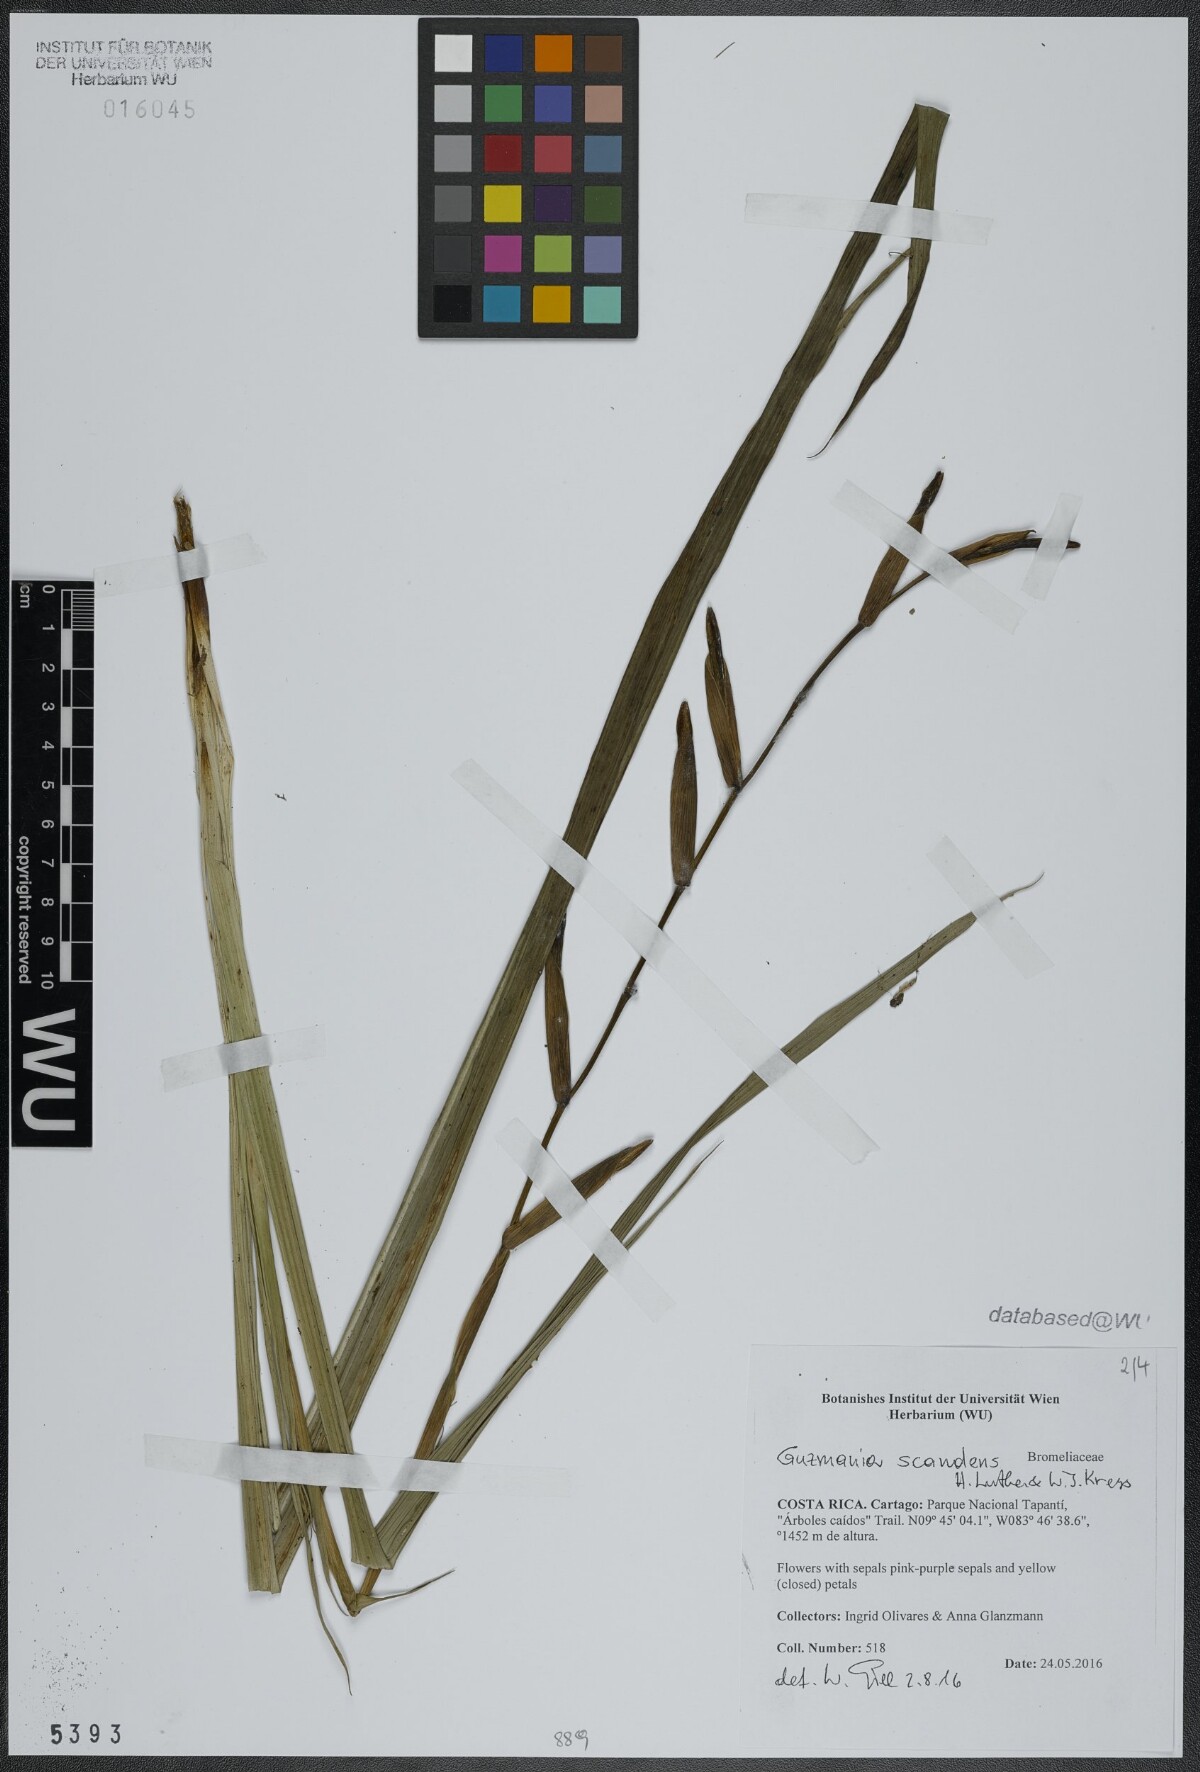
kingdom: Plantae
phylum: Tracheophyta
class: Liliopsida
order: Poales
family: Bromeliaceae
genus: Guzmania
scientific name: Guzmania scandens
